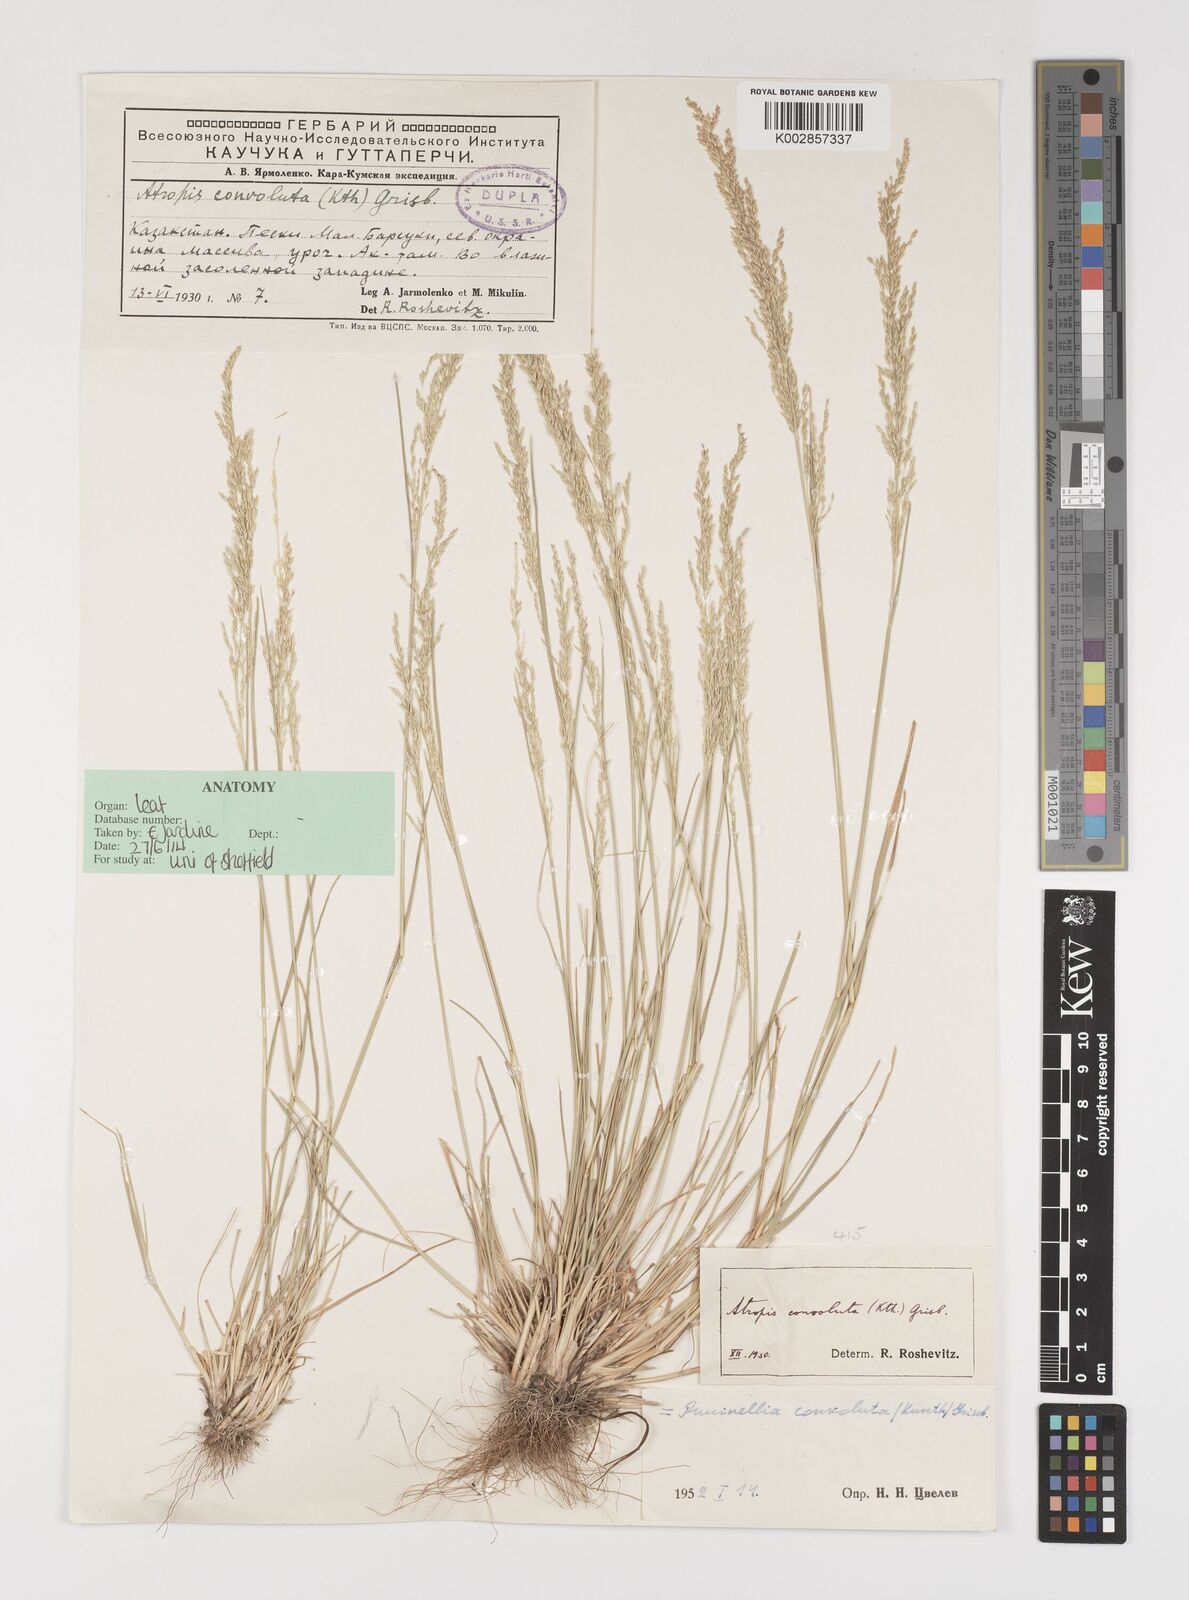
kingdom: Plantae
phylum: Tracheophyta
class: Liliopsida
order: Poales
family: Poaceae
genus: Puccinellia
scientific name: Puccinellia gigantea
